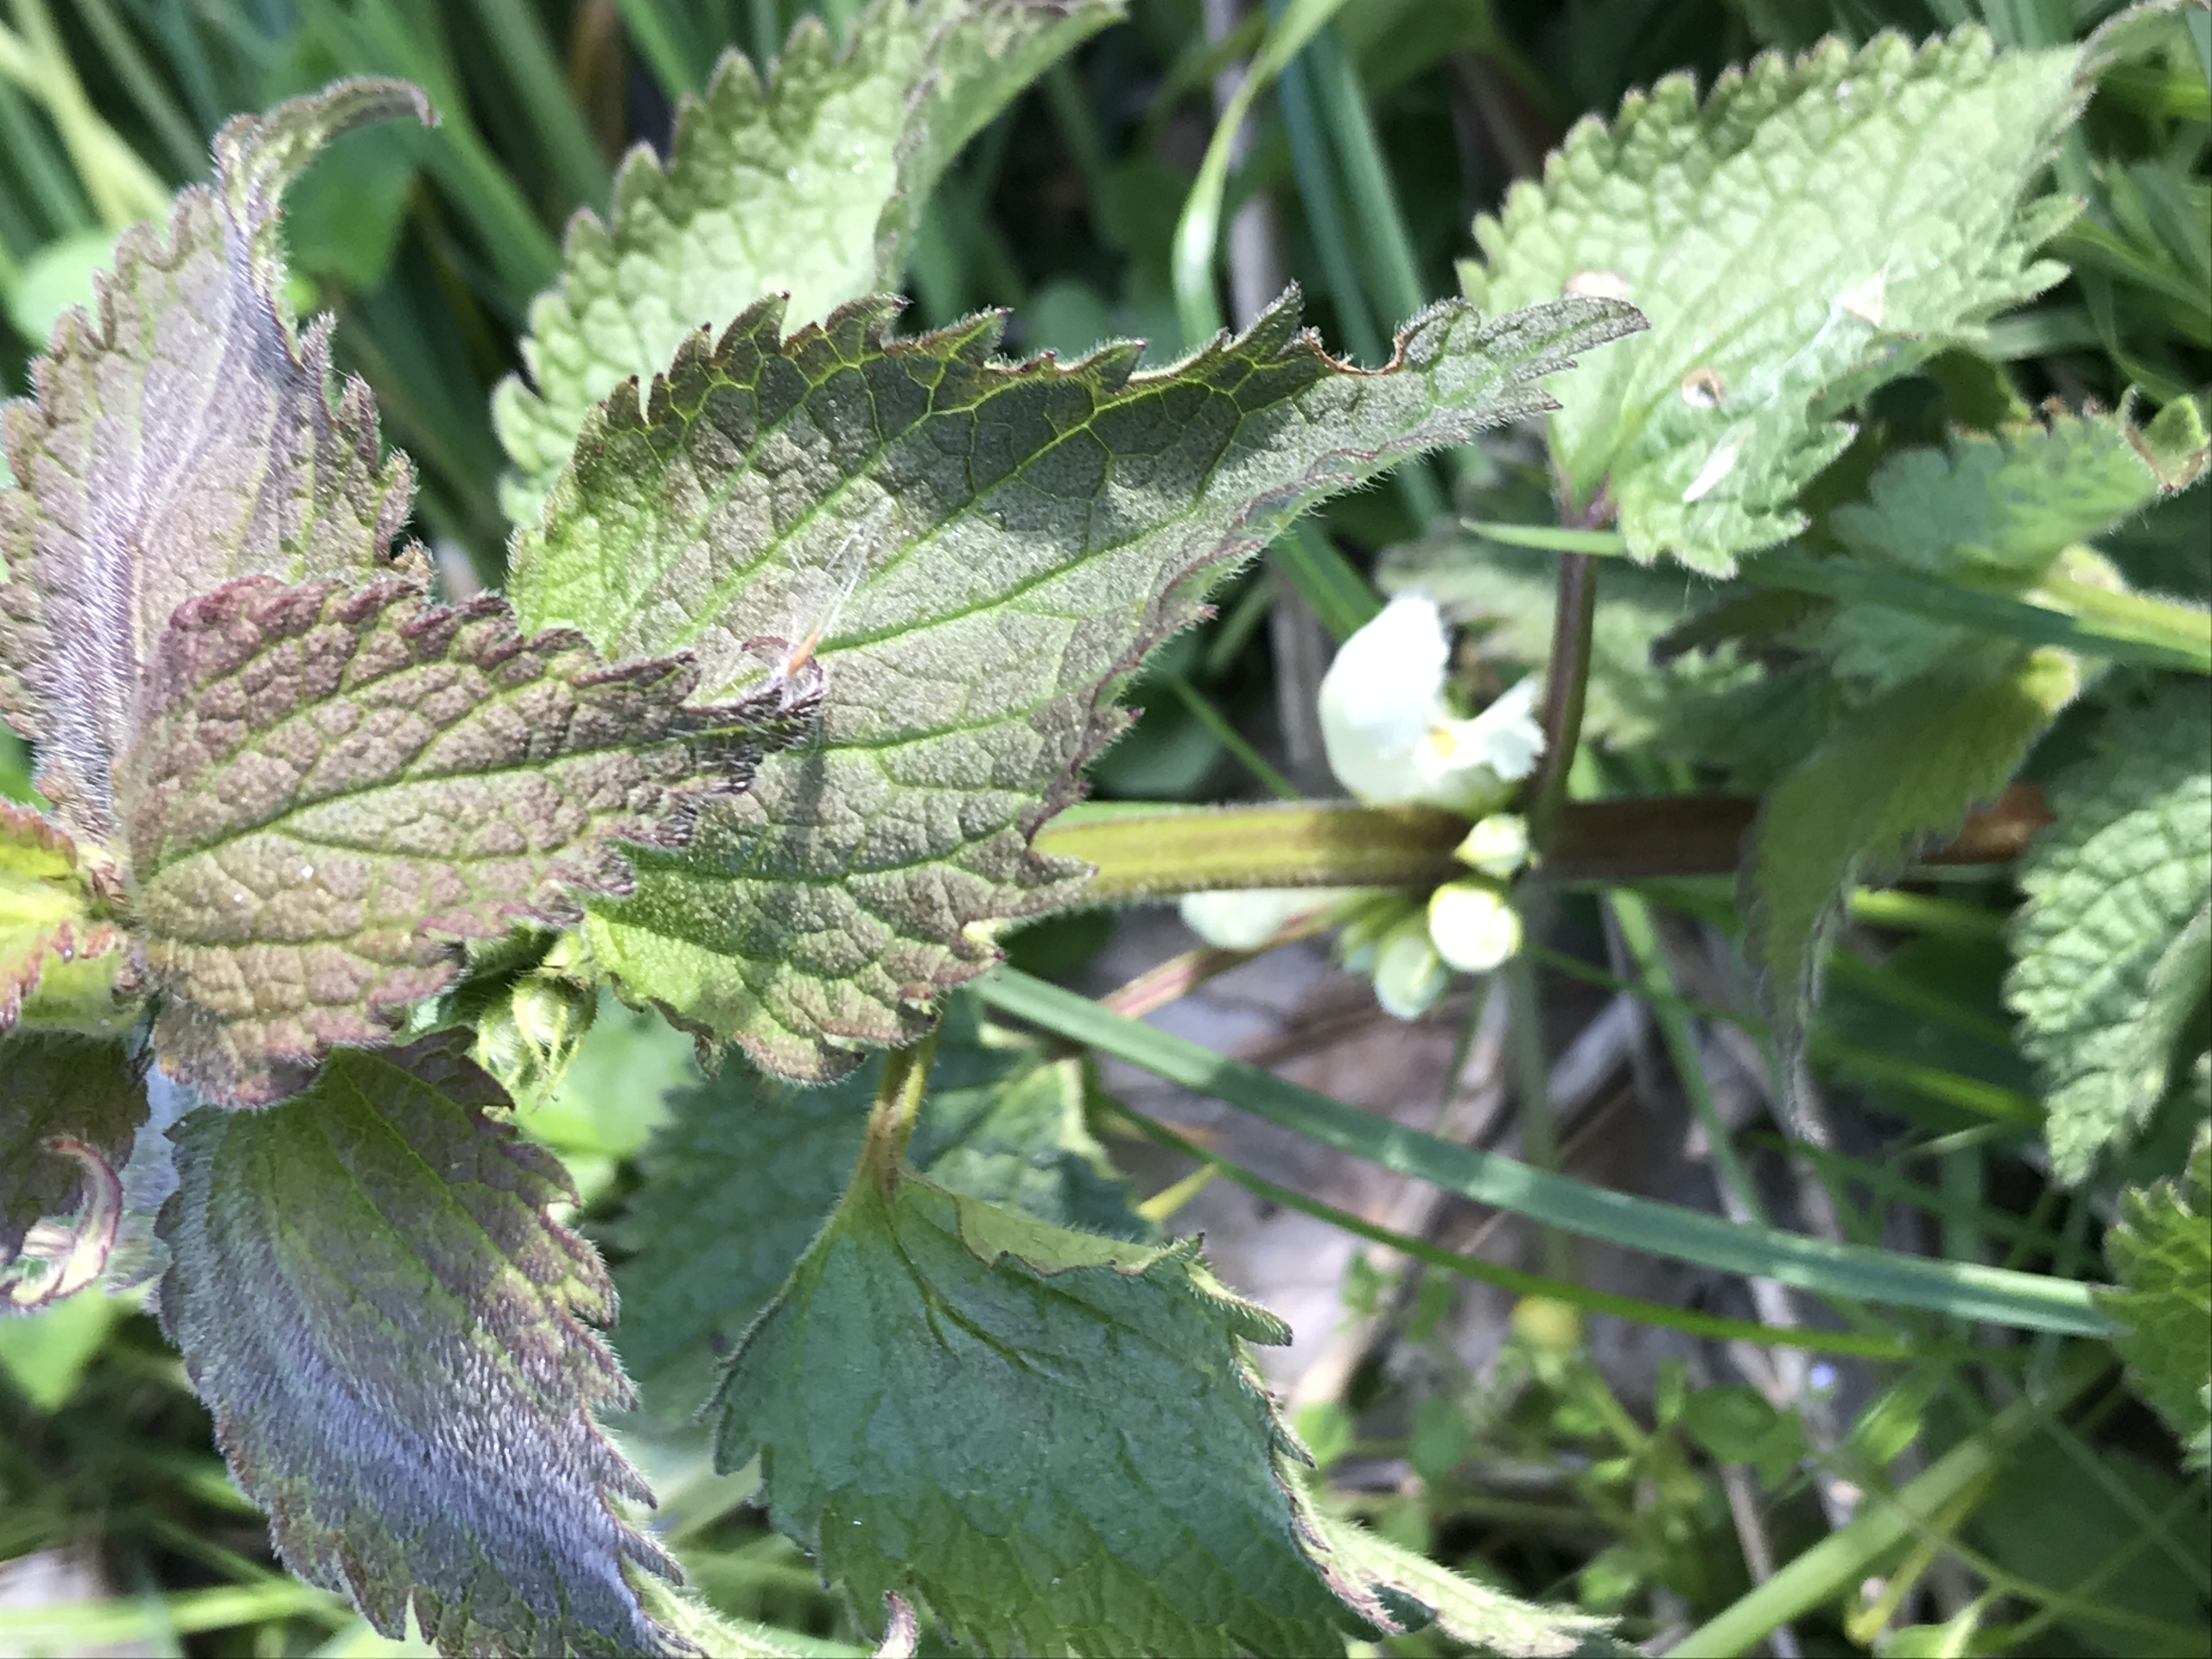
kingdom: Plantae
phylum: Tracheophyta
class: Magnoliopsida
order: Lamiales
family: Lamiaceae
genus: Lamium
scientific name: Lamium album
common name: Døvnælde
